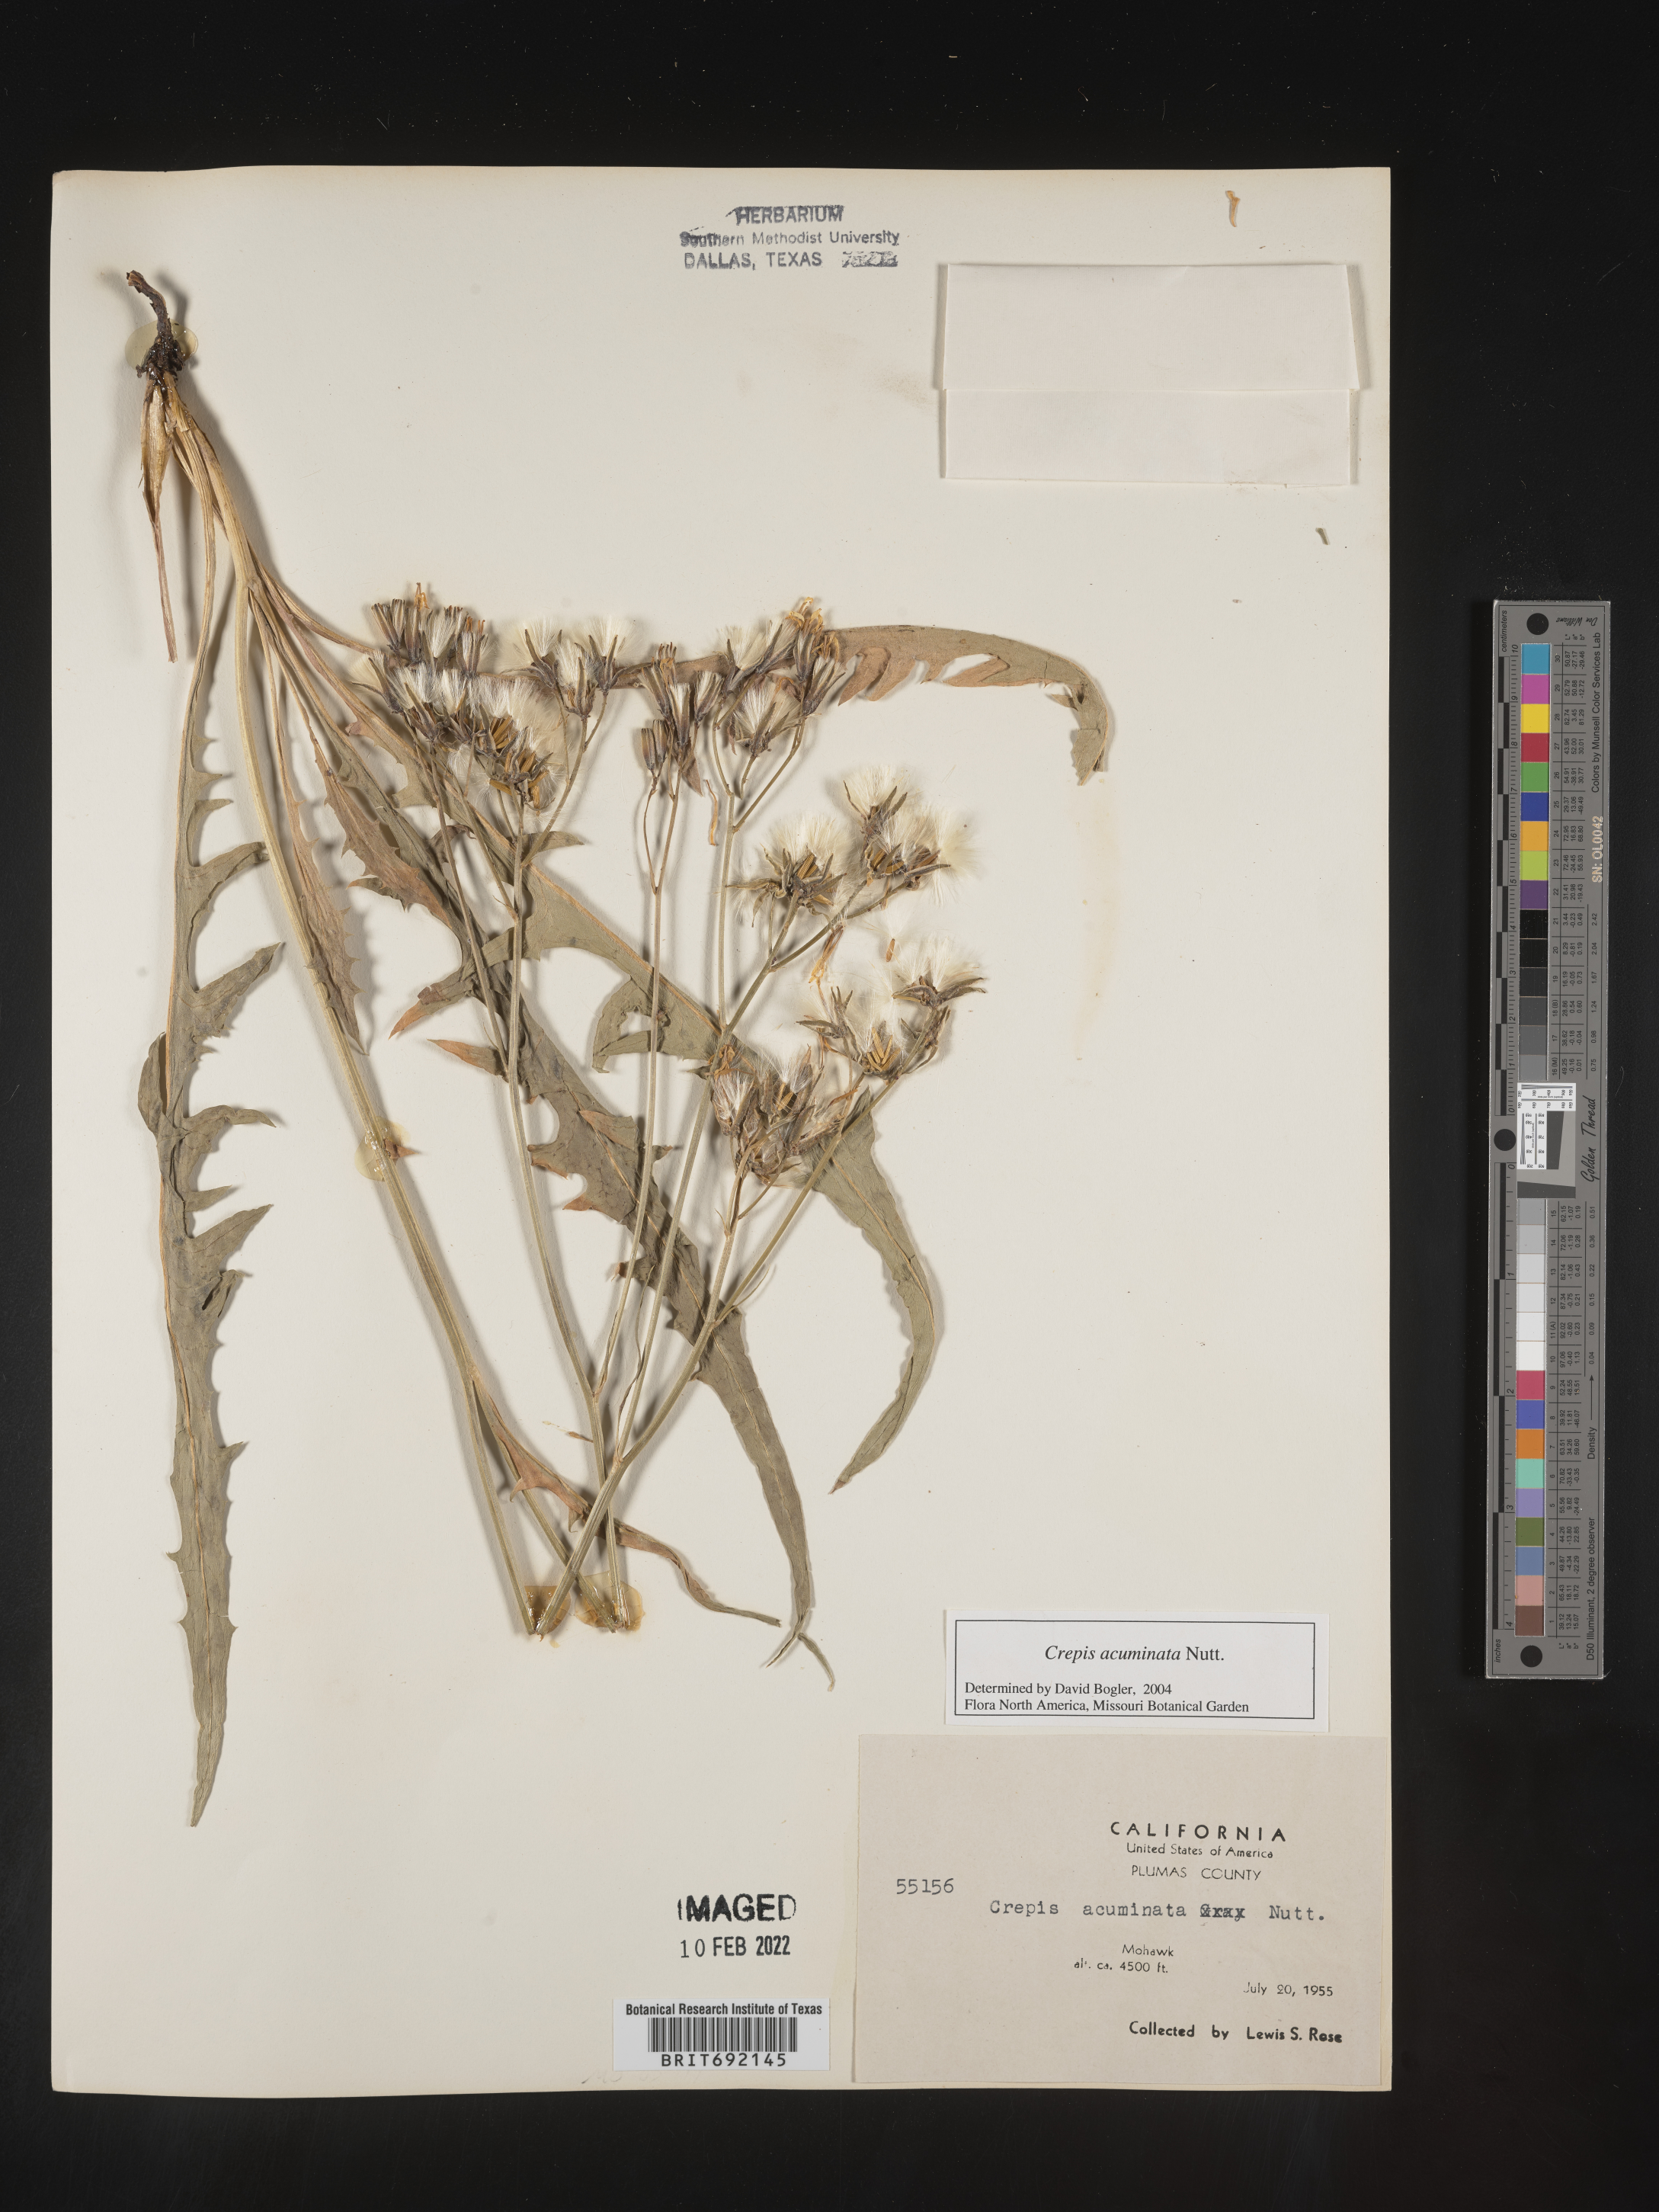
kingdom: Plantae
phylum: Tracheophyta
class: Magnoliopsida
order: Asterales
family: Asteraceae
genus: Crepis
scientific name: Crepis acuminata
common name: Longleaf hawk's-beard
